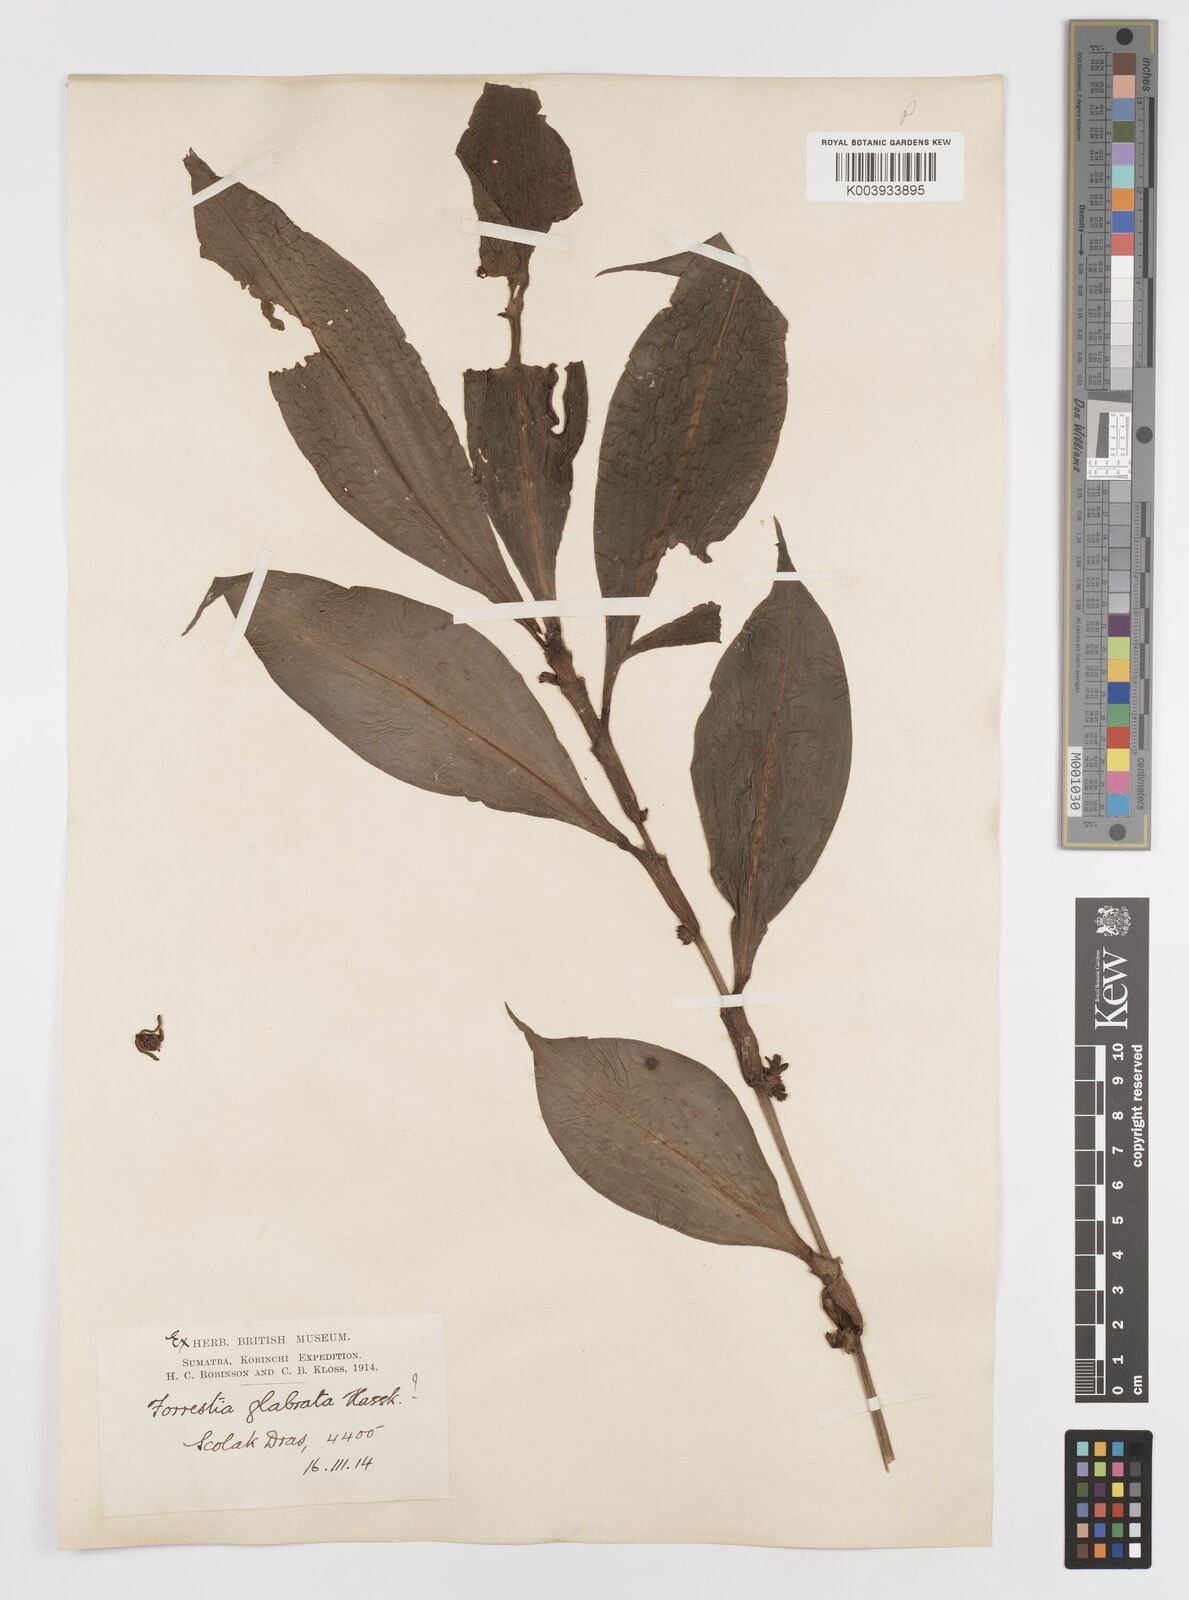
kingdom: Plantae
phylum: Tracheophyta
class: Liliopsida
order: Commelinales
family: Commelinaceae
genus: Amischotolype
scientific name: Amischotolype glabrata
